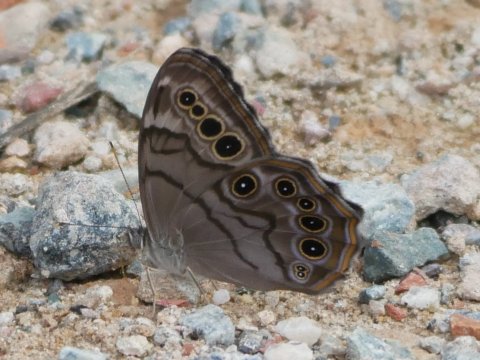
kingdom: Animalia
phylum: Arthropoda
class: Insecta
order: Lepidoptera
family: Nymphalidae
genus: Lethe
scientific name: Lethe anthedon
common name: Northern Pearly-Eye
